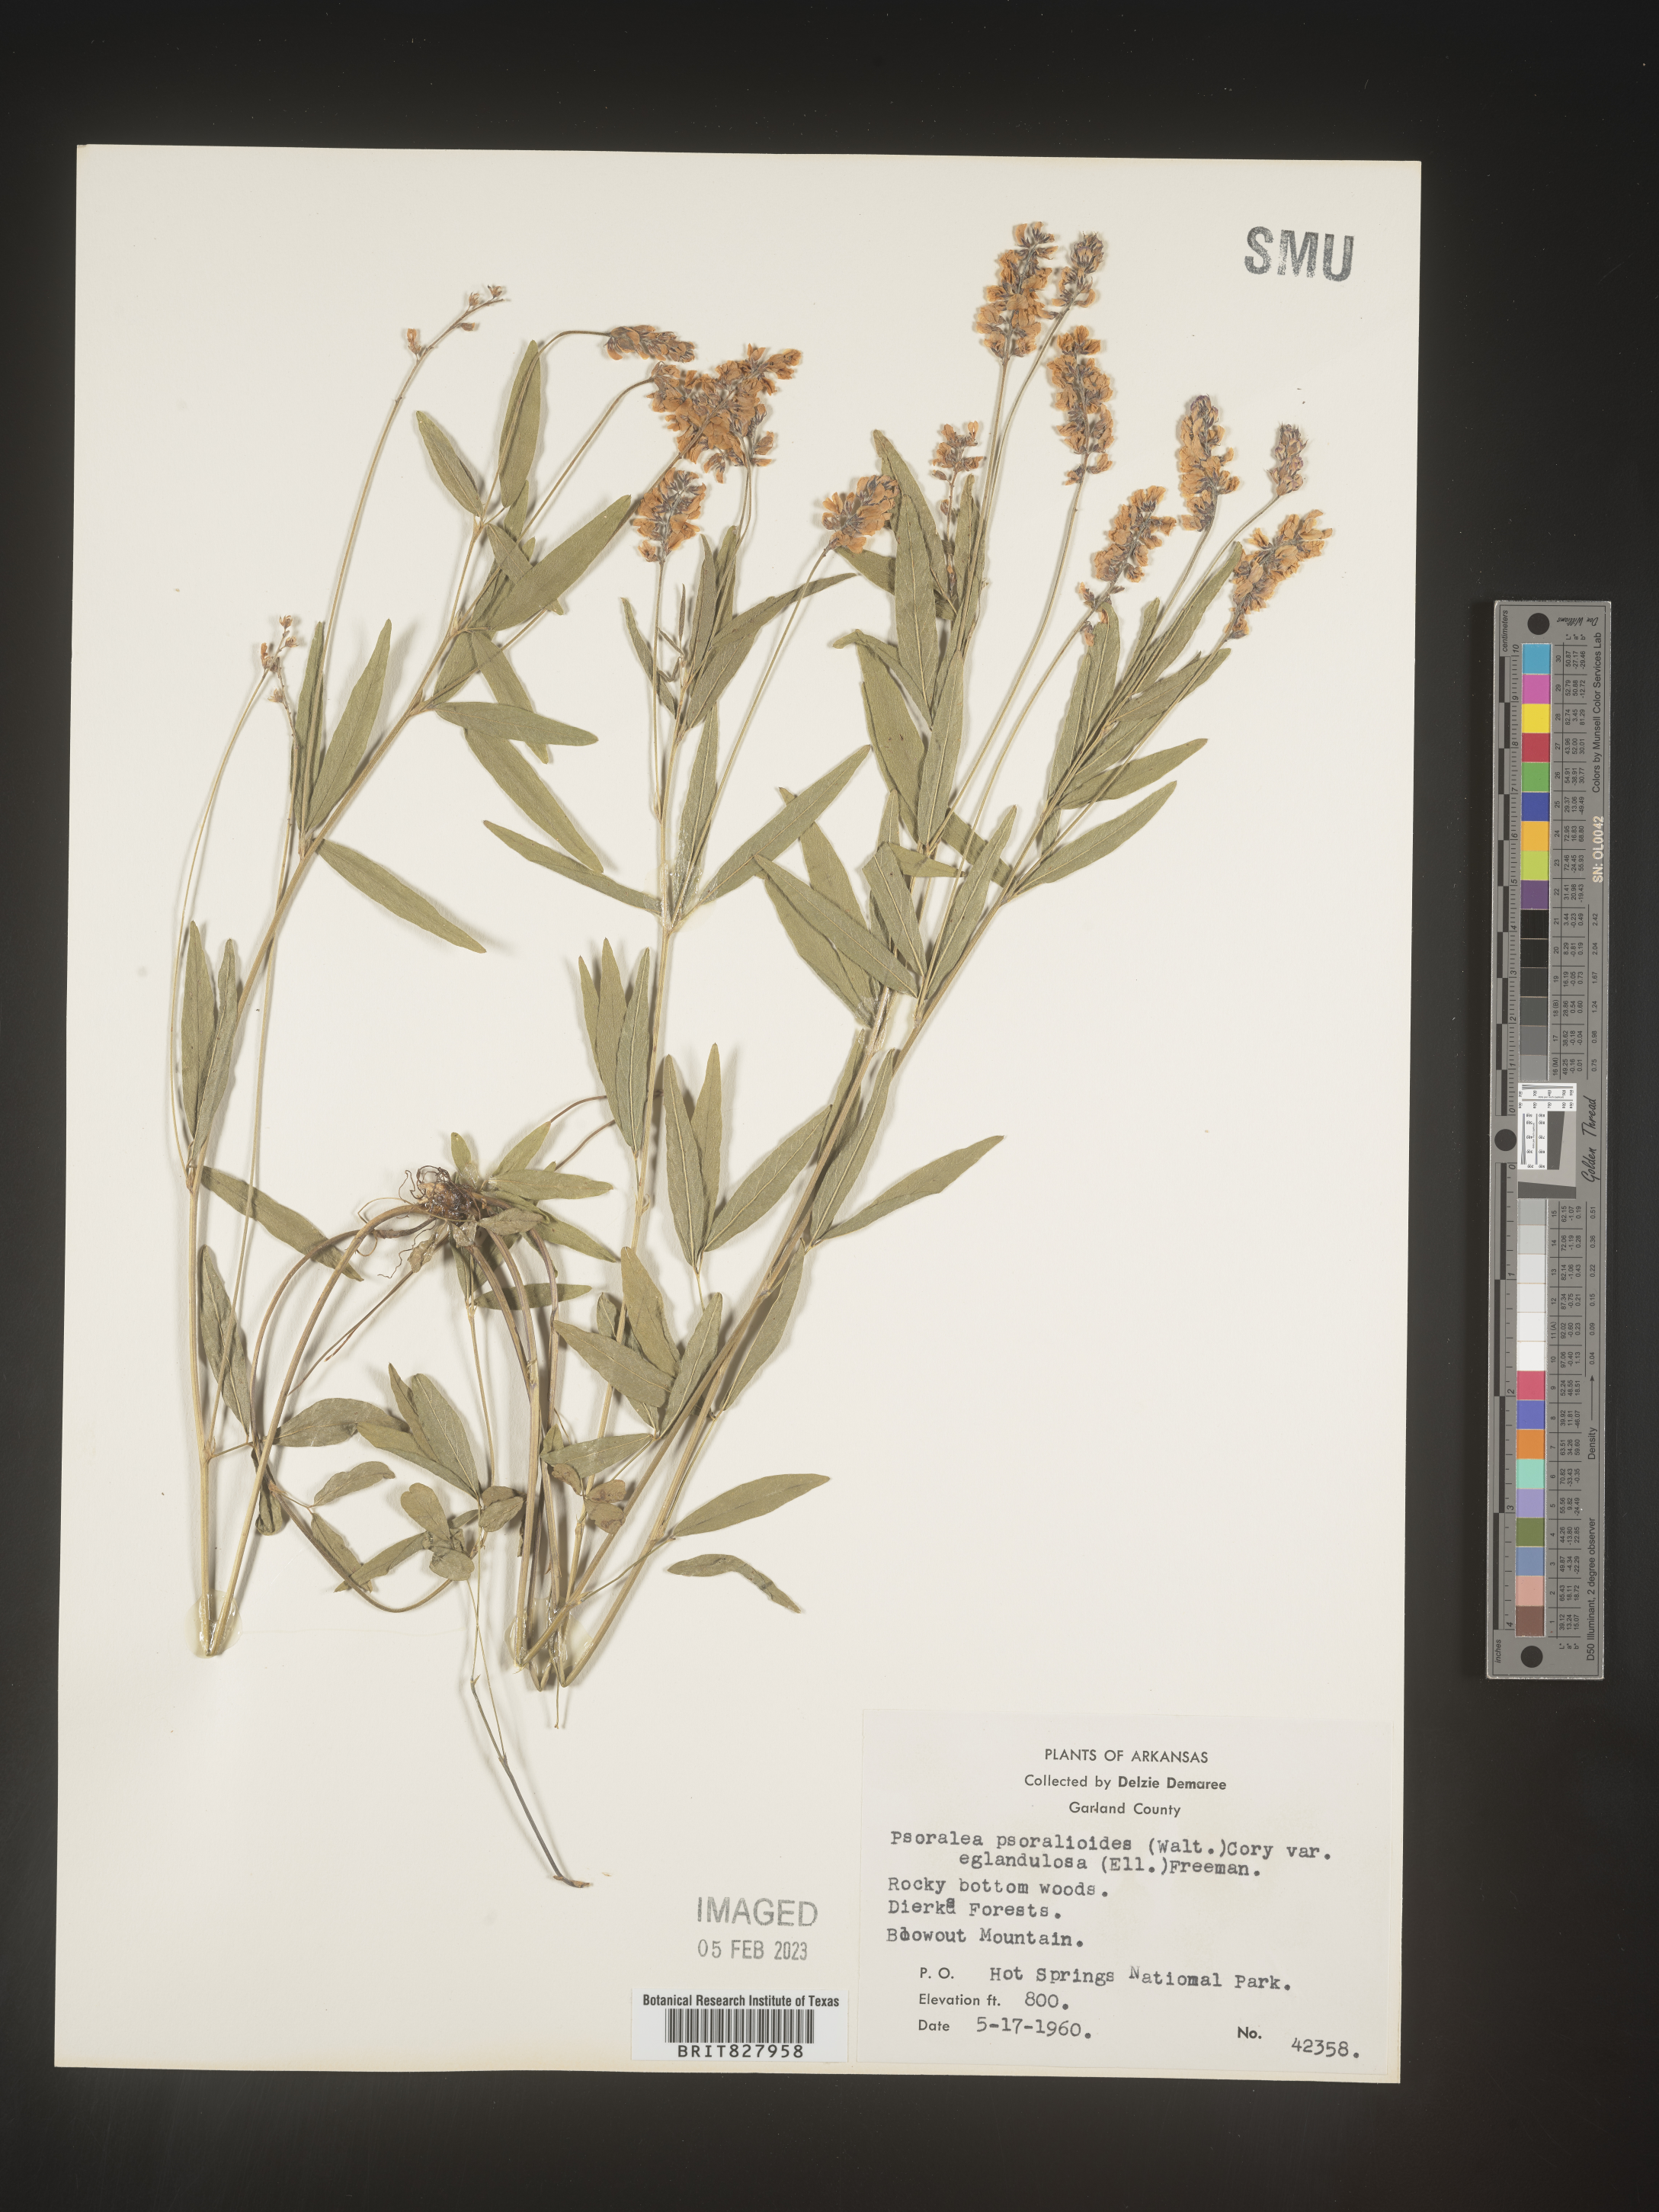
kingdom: Plantae
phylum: Tracheophyta
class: Magnoliopsida
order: Fabales
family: Fabaceae
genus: Orbexilum
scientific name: Orbexilum pedunculatum
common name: Sampson's snakeroot
